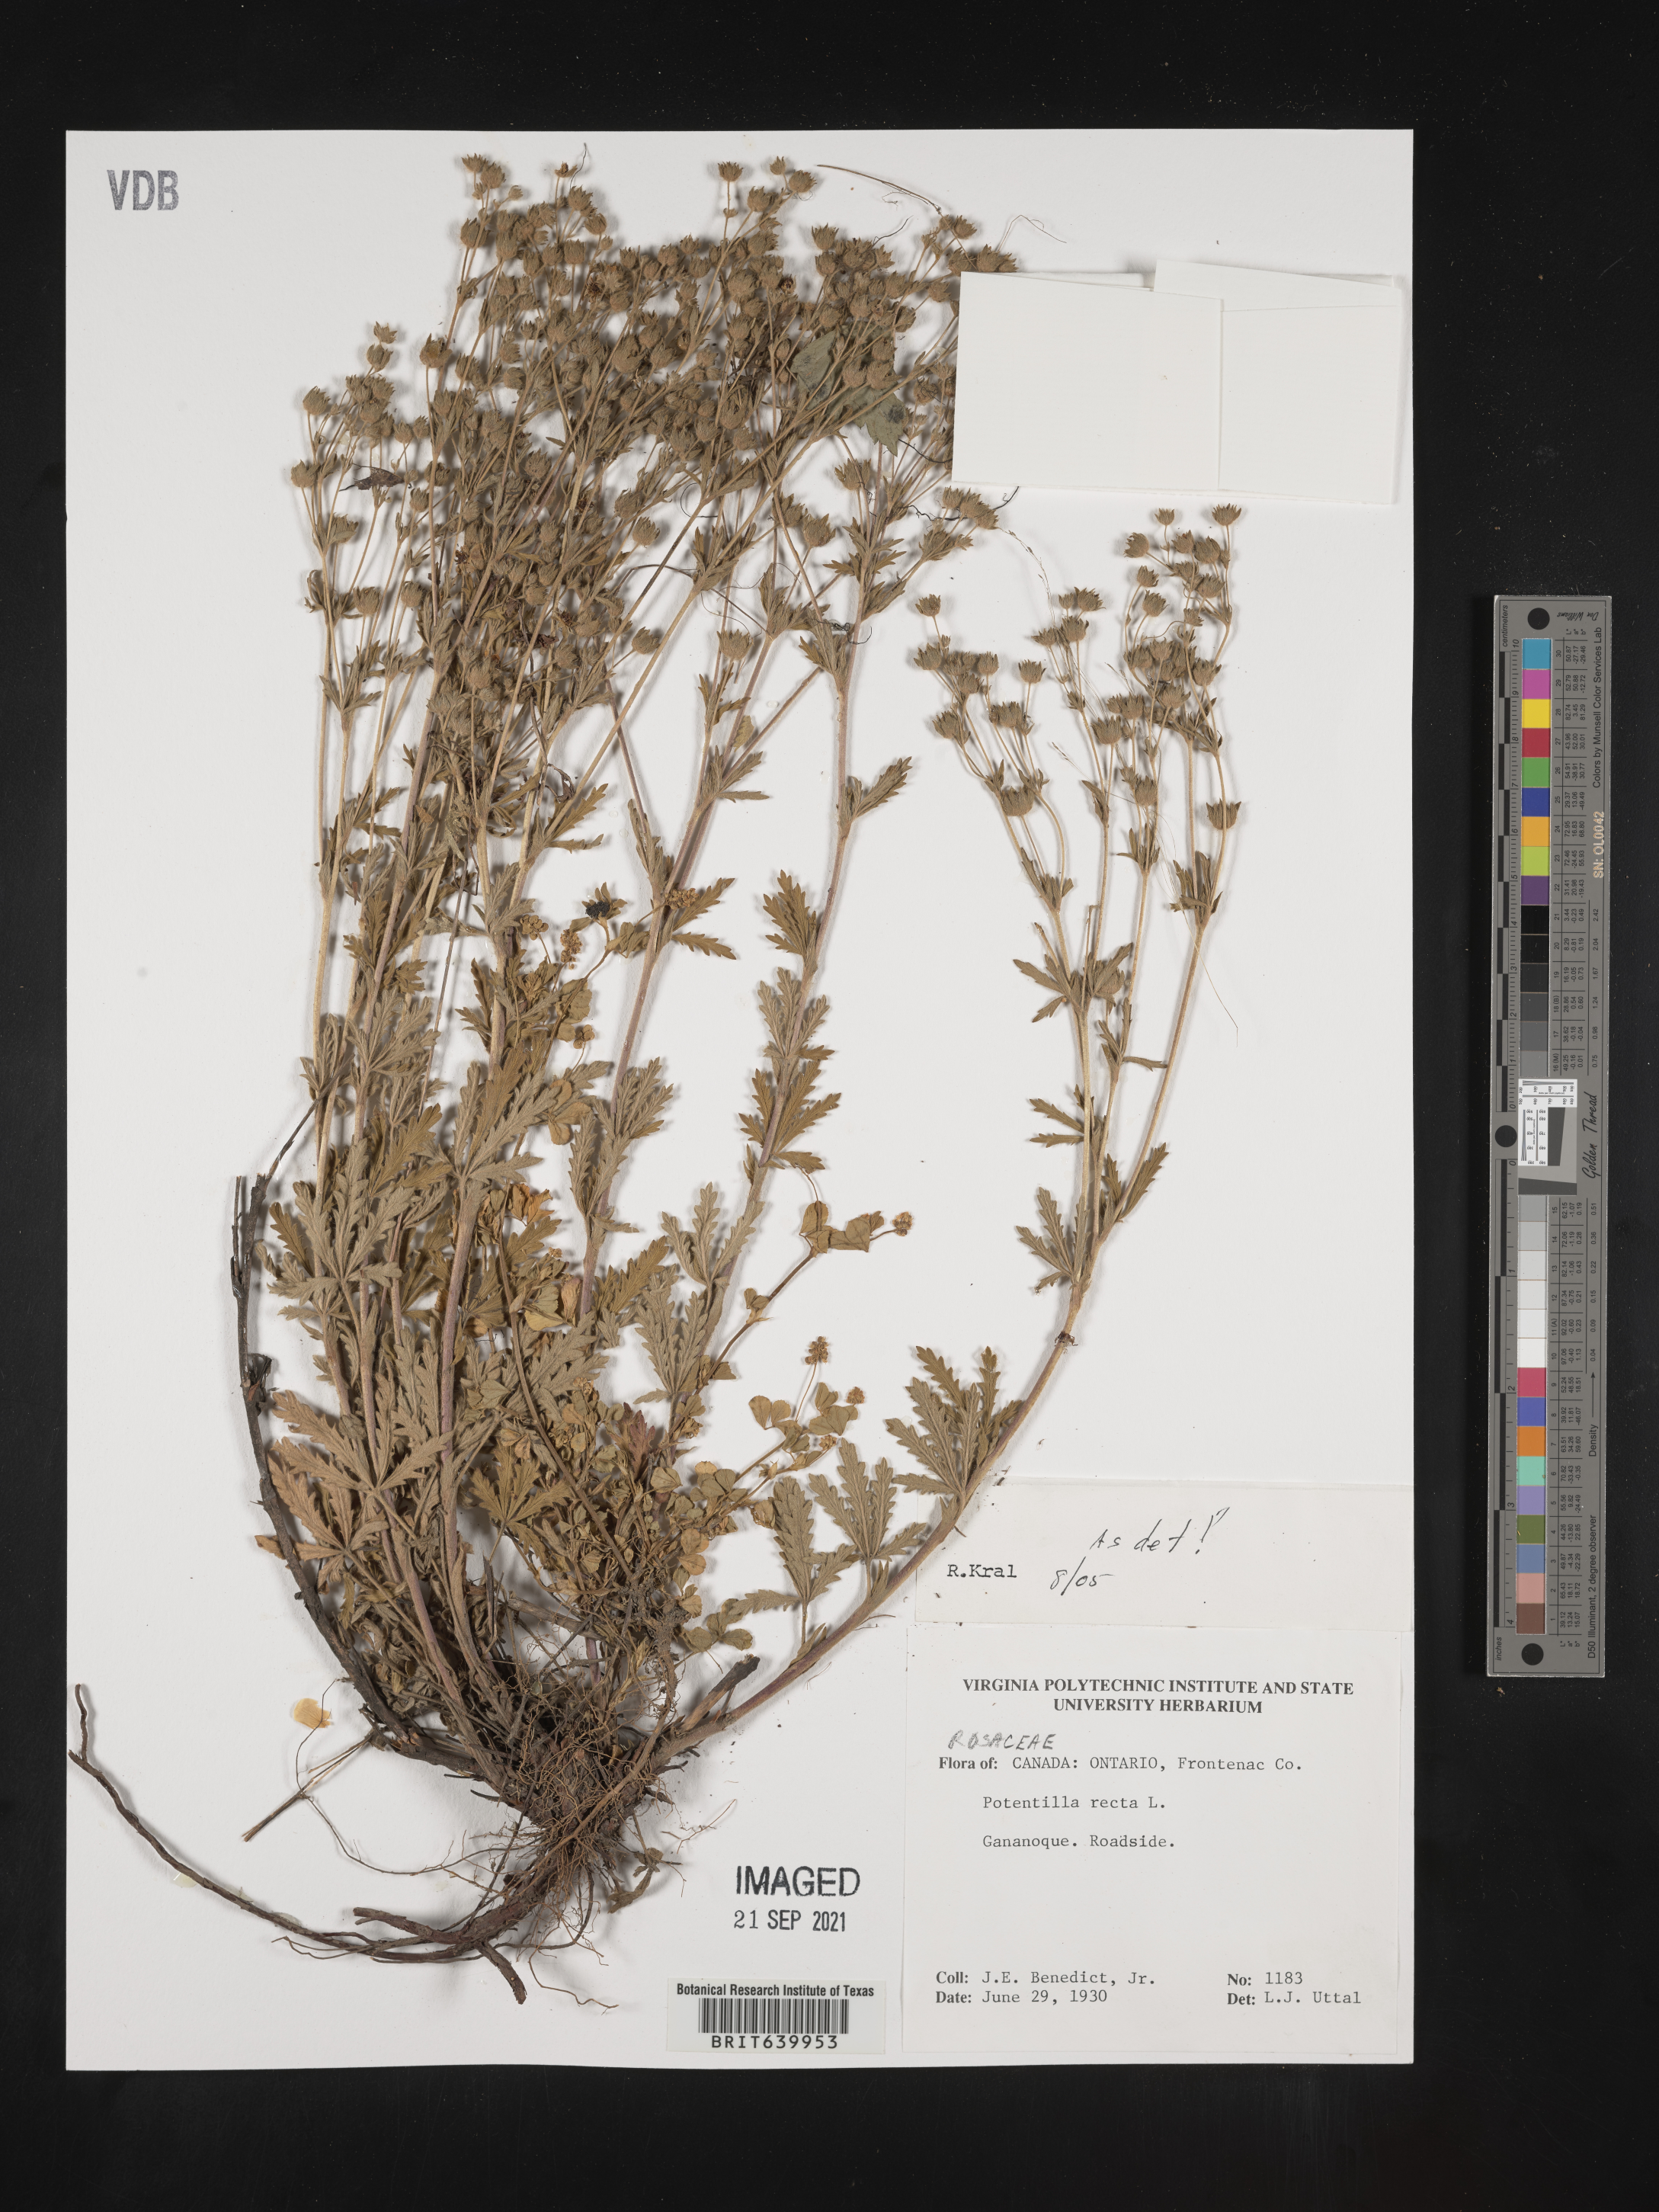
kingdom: Plantae
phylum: Tracheophyta
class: Magnoliopsida
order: Rosales
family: Rosaceae
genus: Potentilla
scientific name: Potentilla
